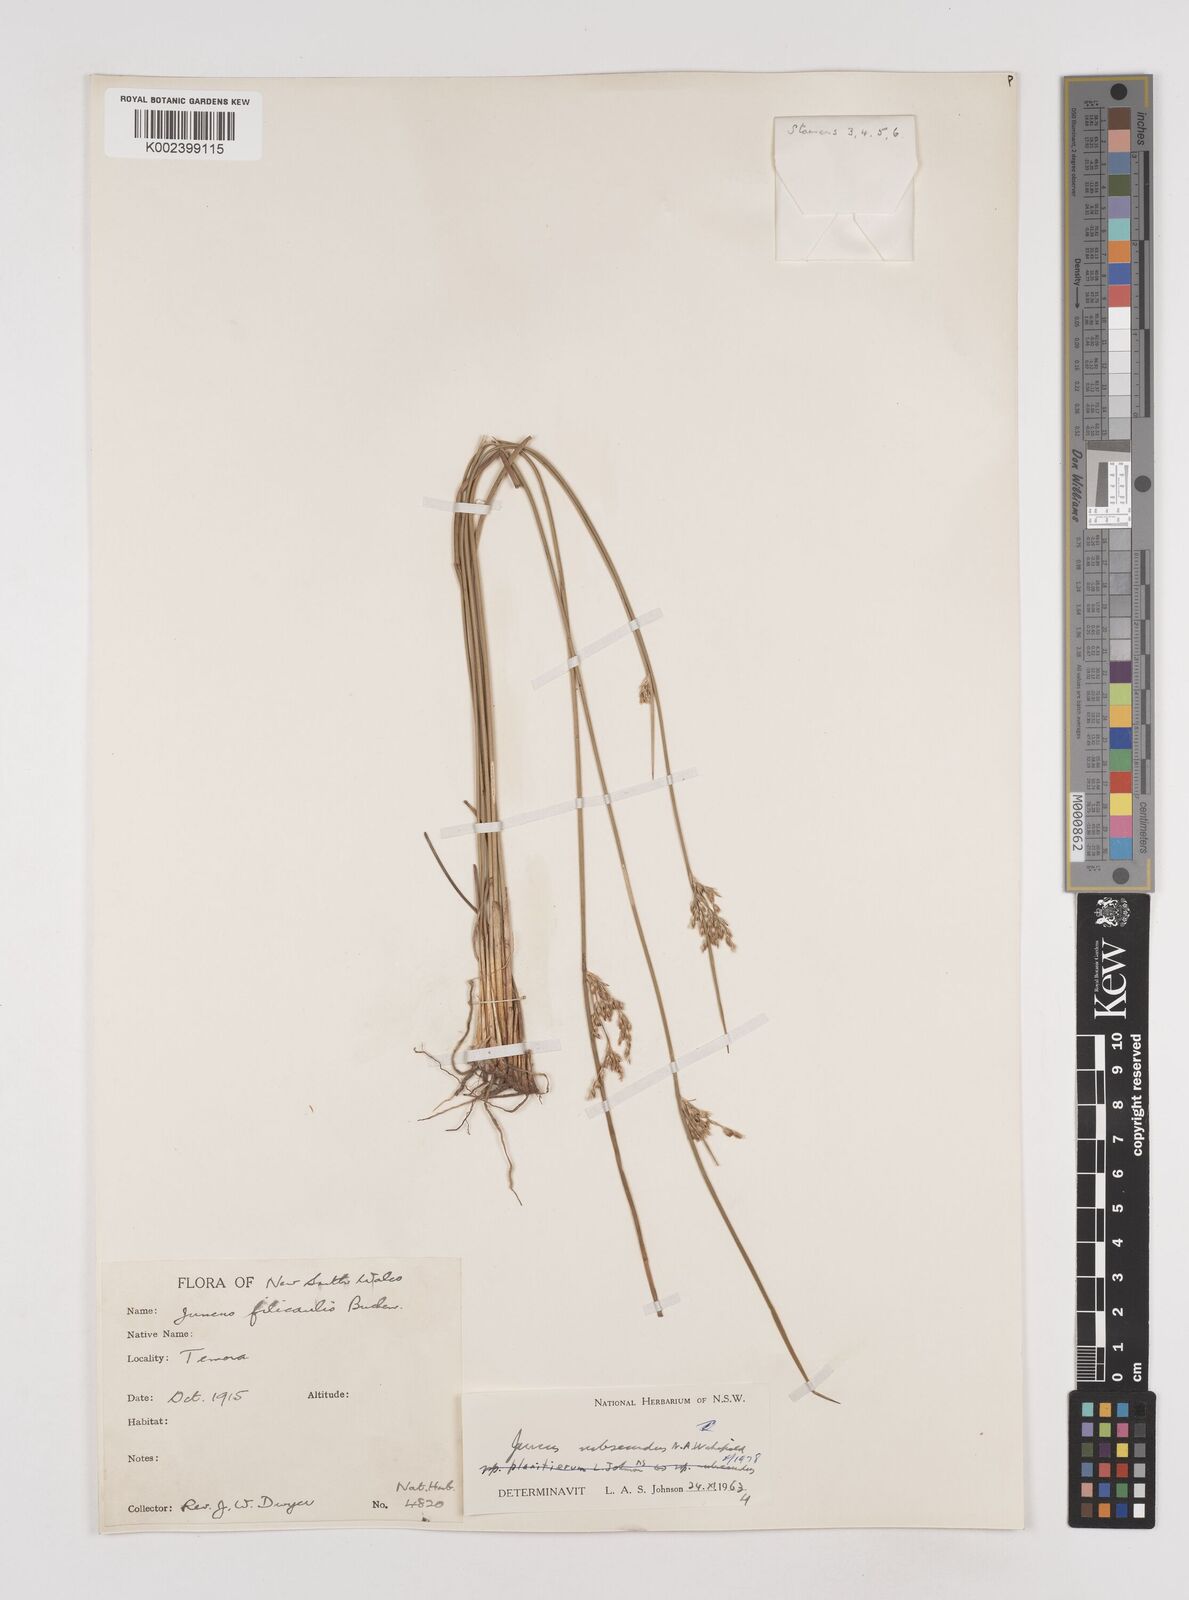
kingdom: Plantae
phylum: Tracheophyta
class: Liliopsida
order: Poales
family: Juncaceae
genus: Juncus
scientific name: Juncus subsecundus
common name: Fingered rush
